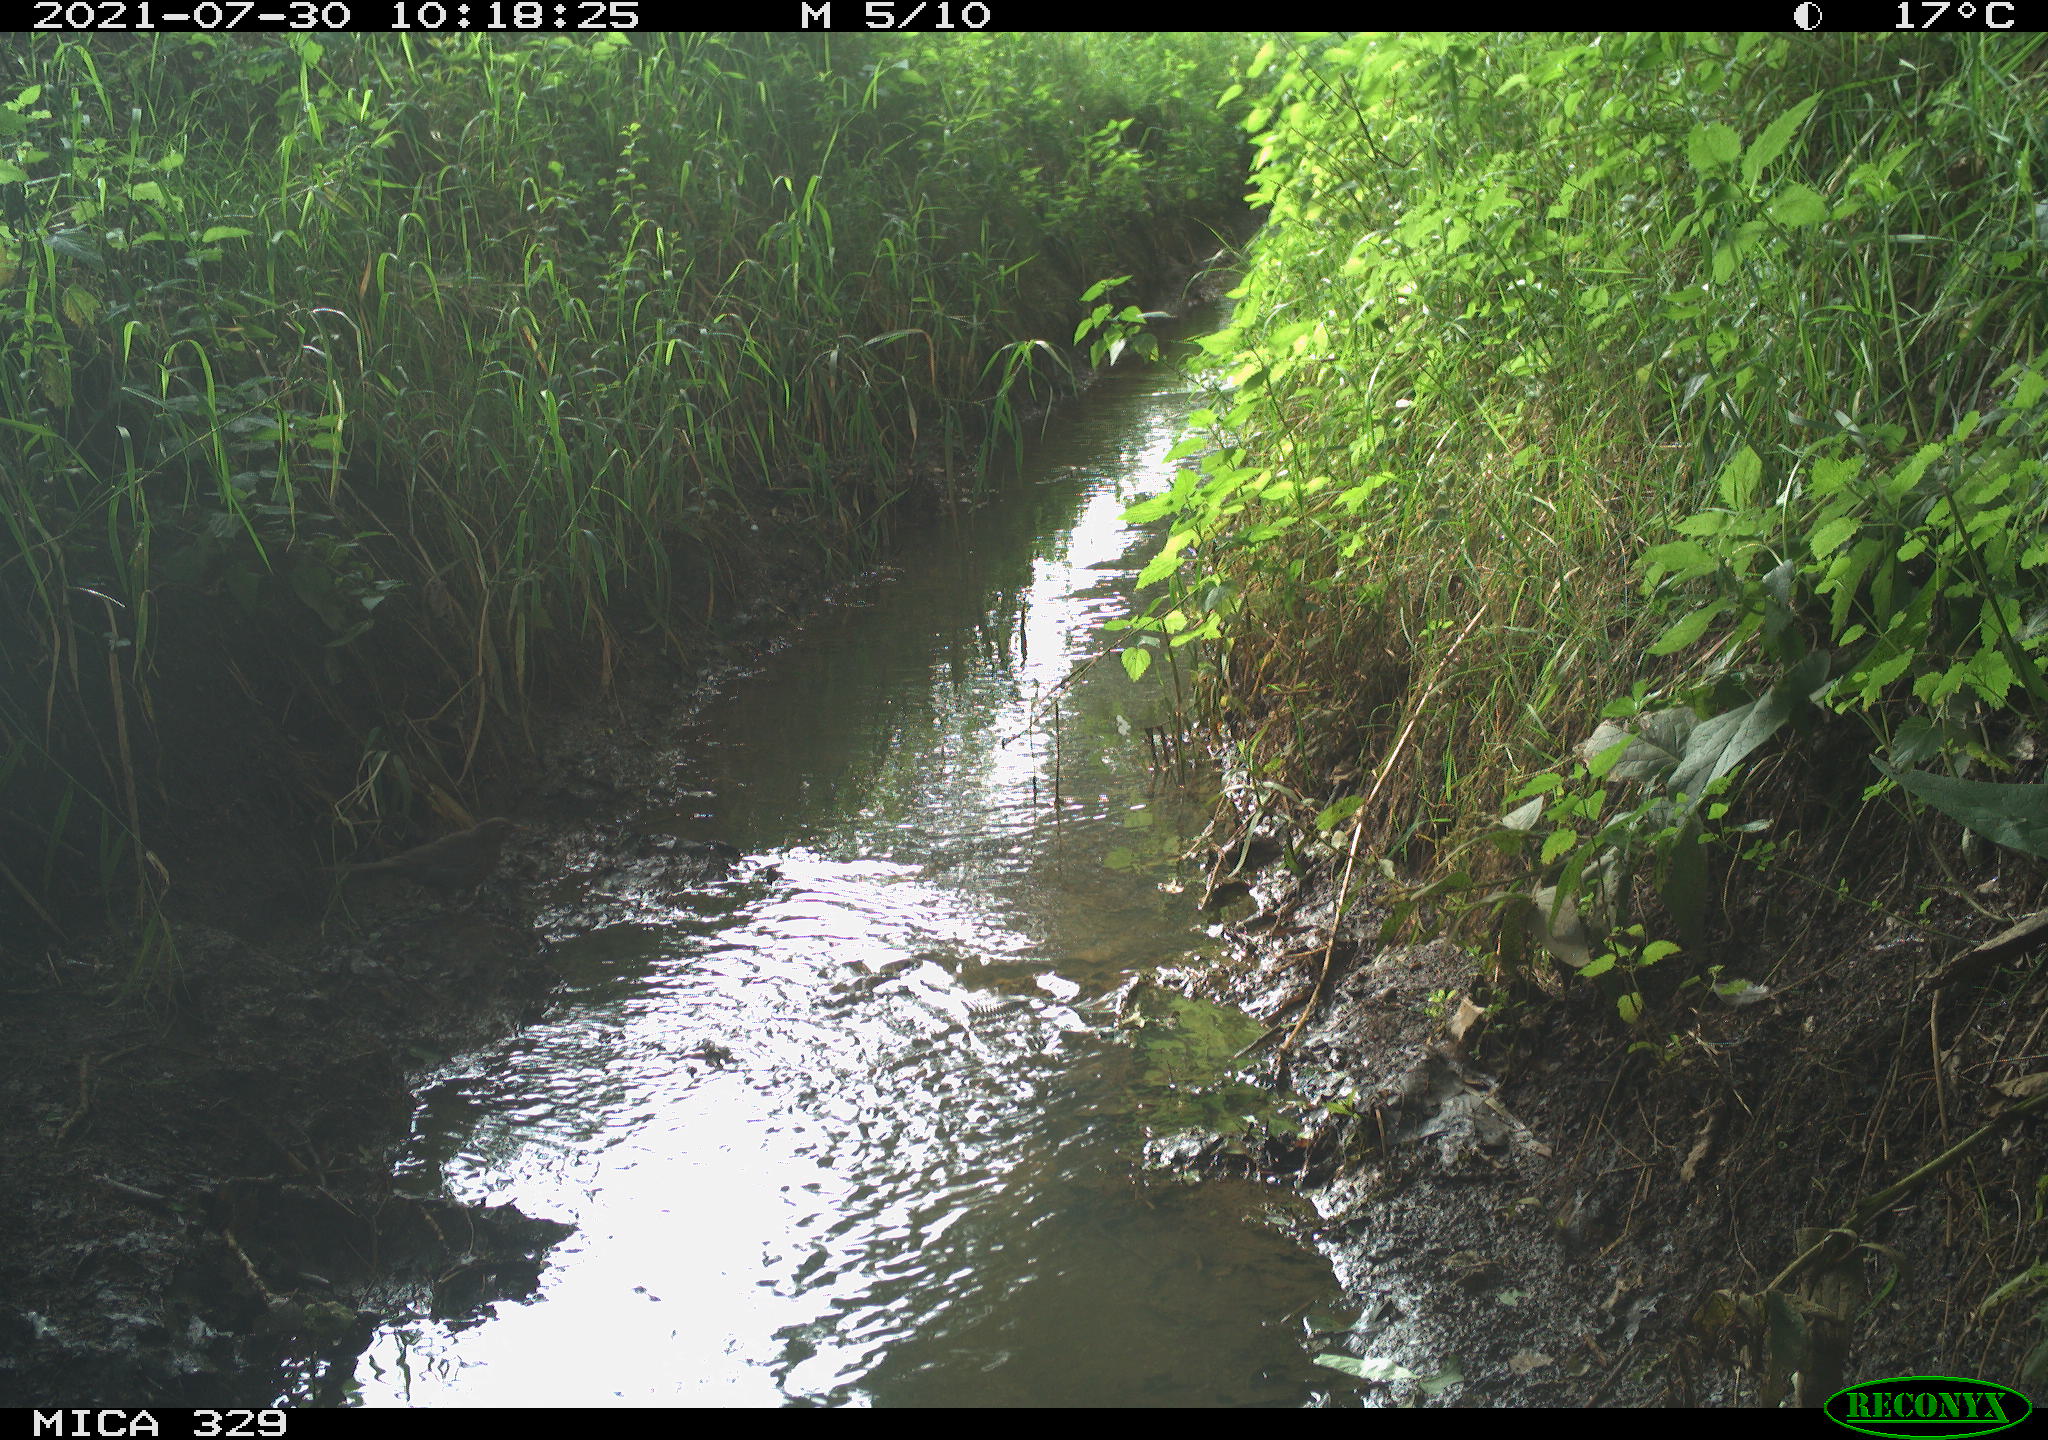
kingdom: Animalia
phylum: Chordata
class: Aves
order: Passeriformes
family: Turdidae
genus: Turdus
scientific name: Turdus merula
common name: Common blackbird
